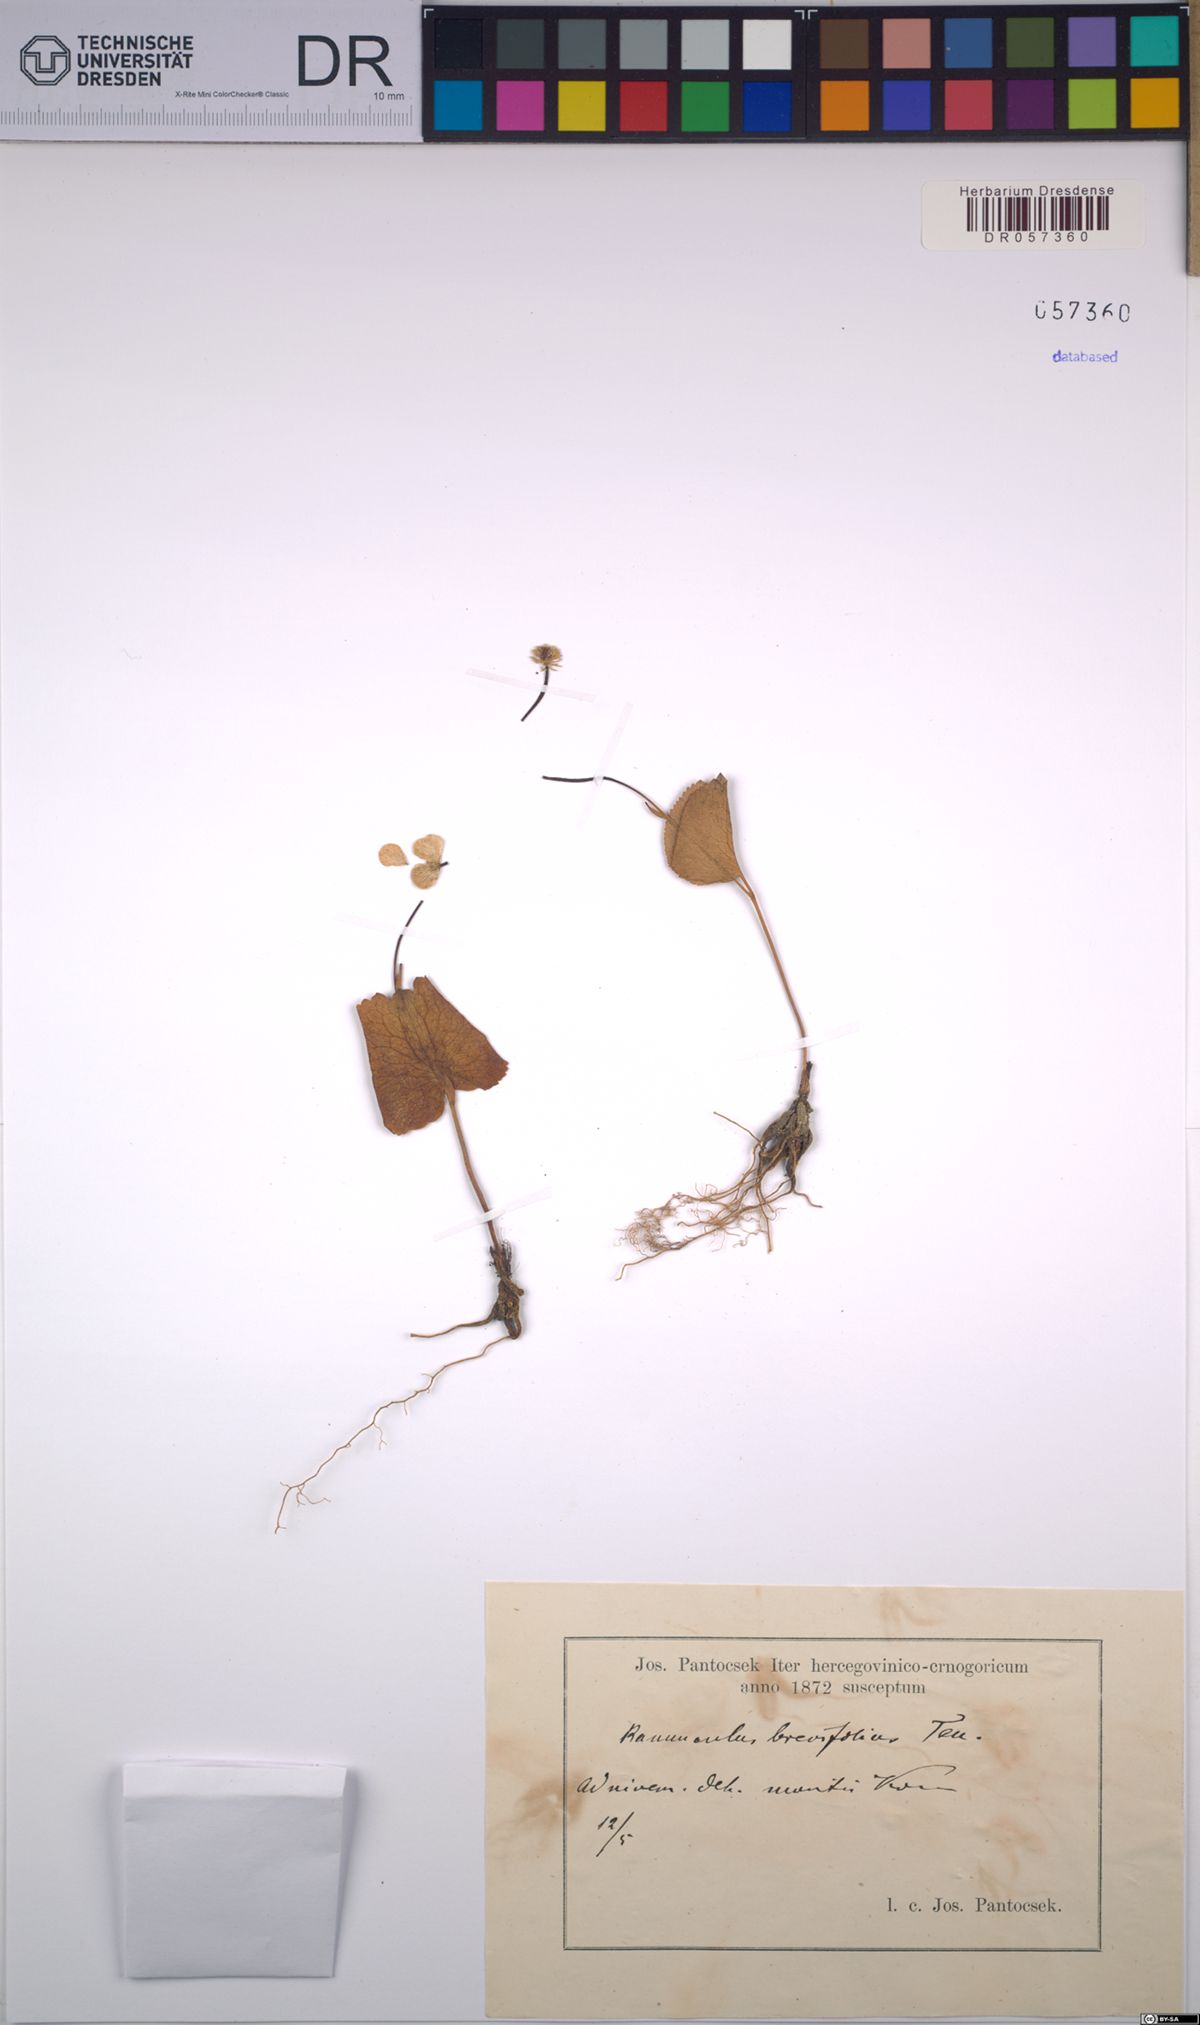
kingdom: Plantae
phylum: Tracheophyta
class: Magnoliopsida
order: Ranunculales
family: Ranunculaceae
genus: Ranunculus
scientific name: Ranunculus brevifolius
